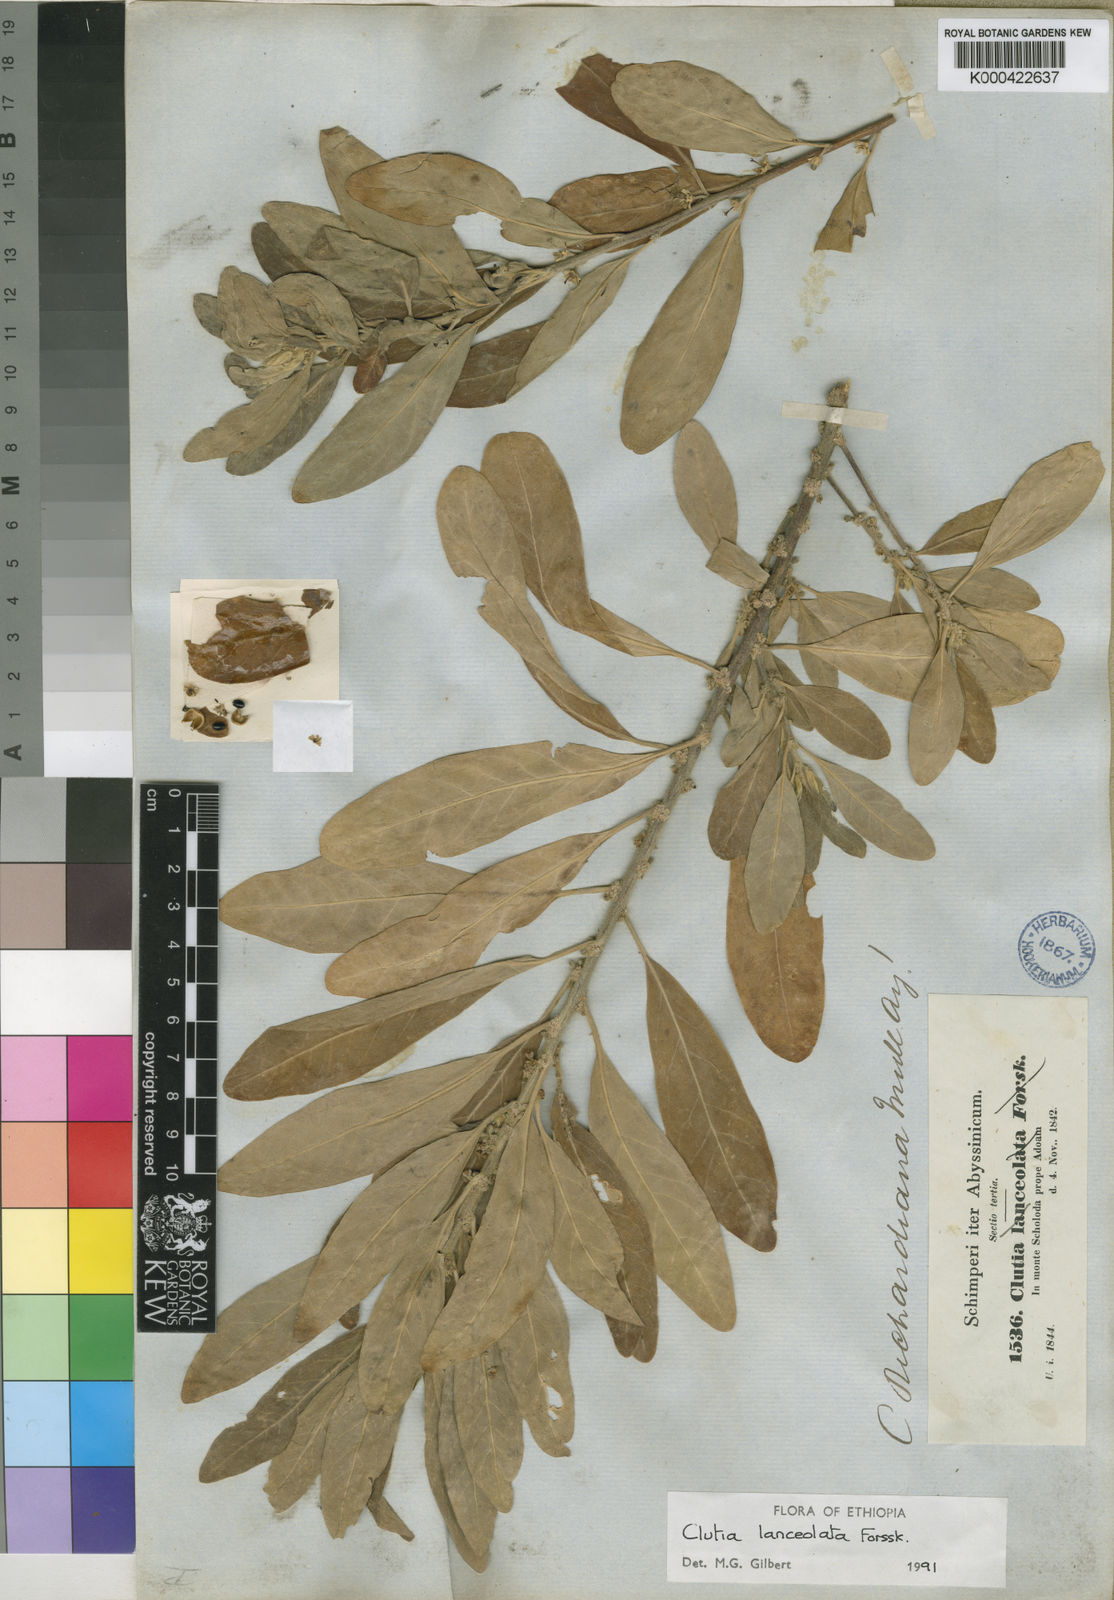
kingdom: Plantae
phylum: Tracheophyta
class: Magnoliopsida
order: Malpighiales
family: Peraceae
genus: Clutia
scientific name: Clutia lanceolata
